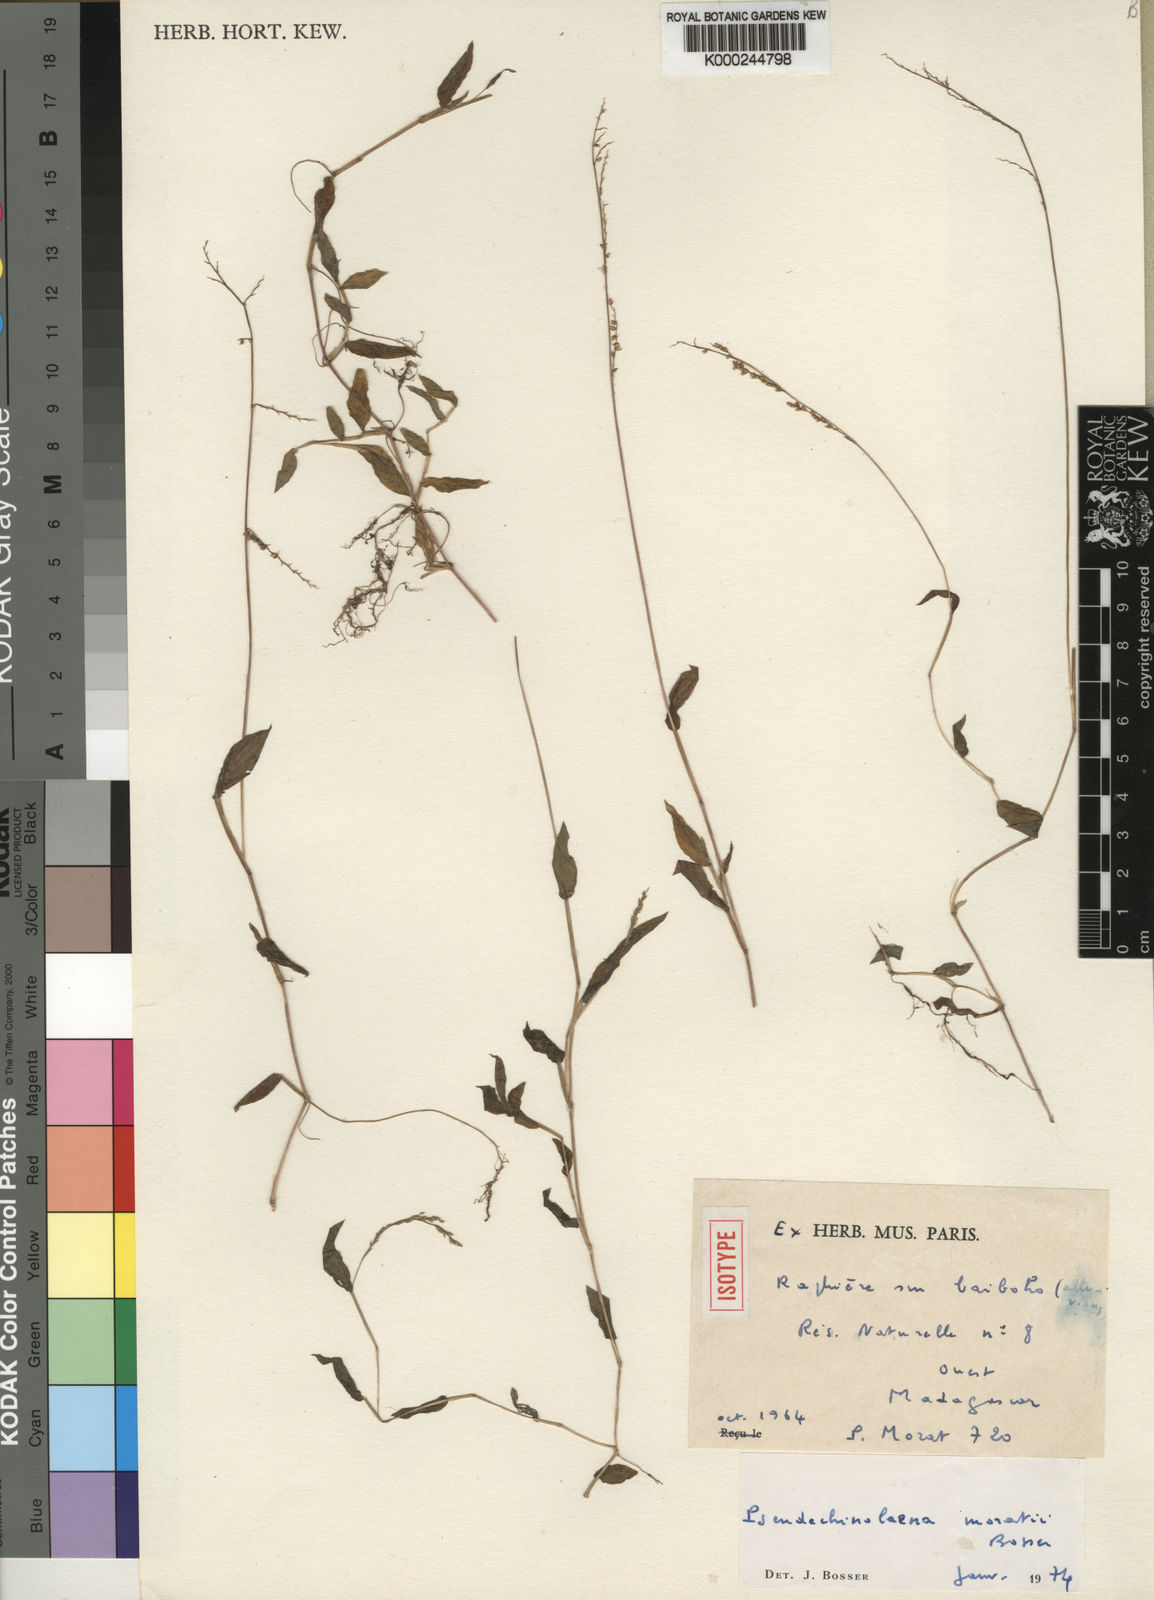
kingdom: Plantae
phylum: Tracheophyta
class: Liliopsida
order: Poales
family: Poaceae
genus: Pseudechinolaena
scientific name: Pseudechinolaena moratii
